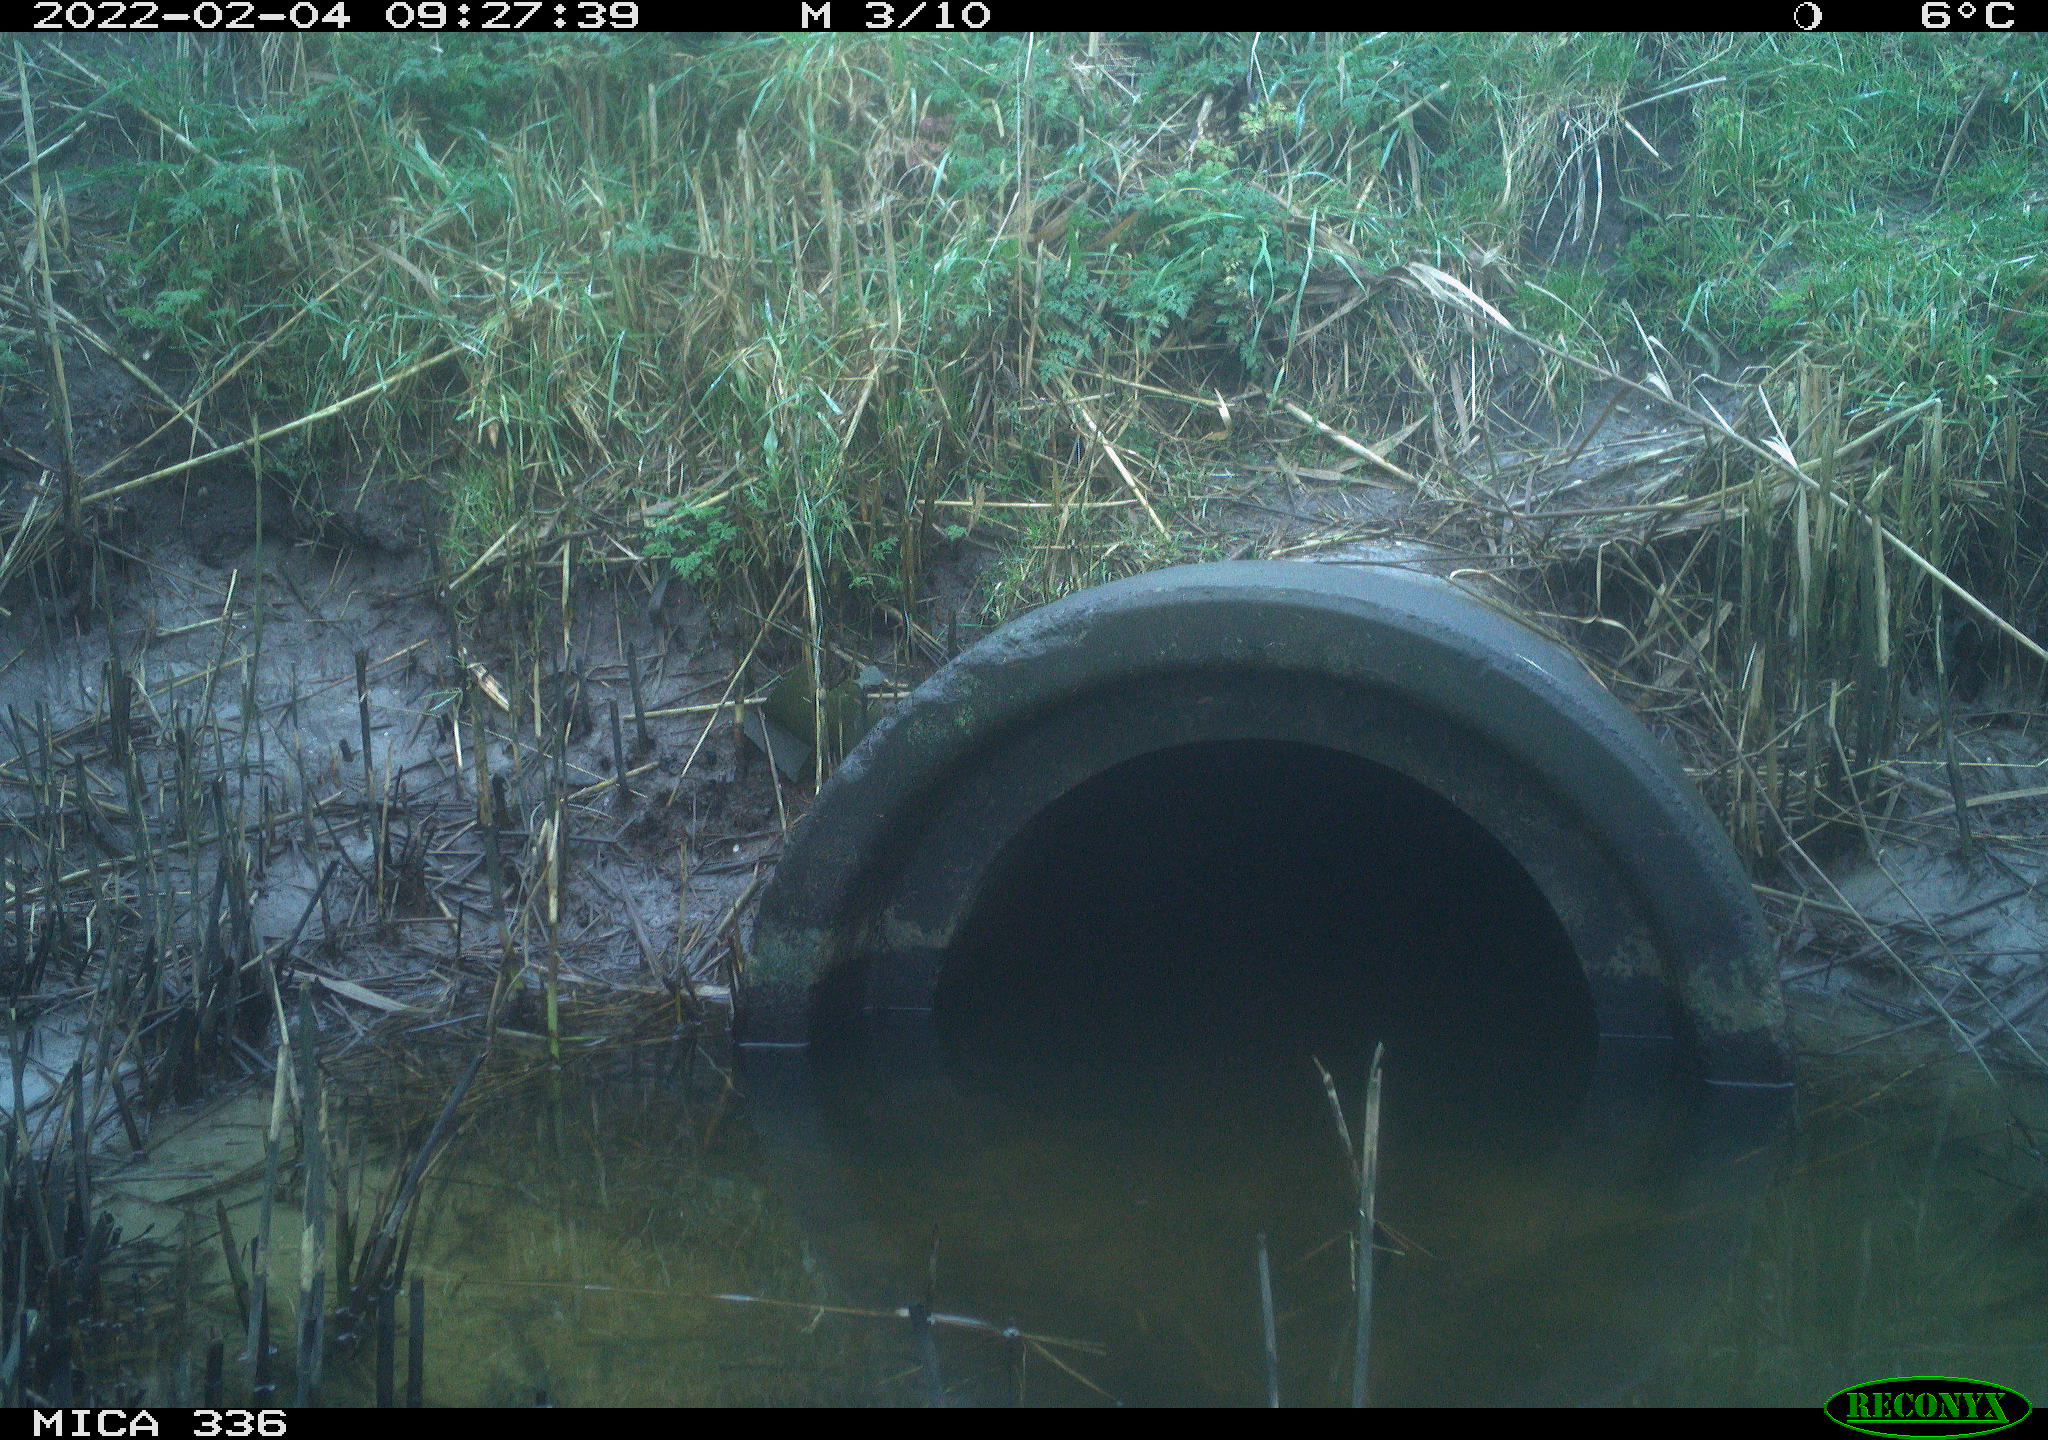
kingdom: Animalia
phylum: Chordata
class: Aves
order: Pelecaniformes
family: Ardeidae
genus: Ardea
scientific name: Ardea cinerea
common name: Grey heron
